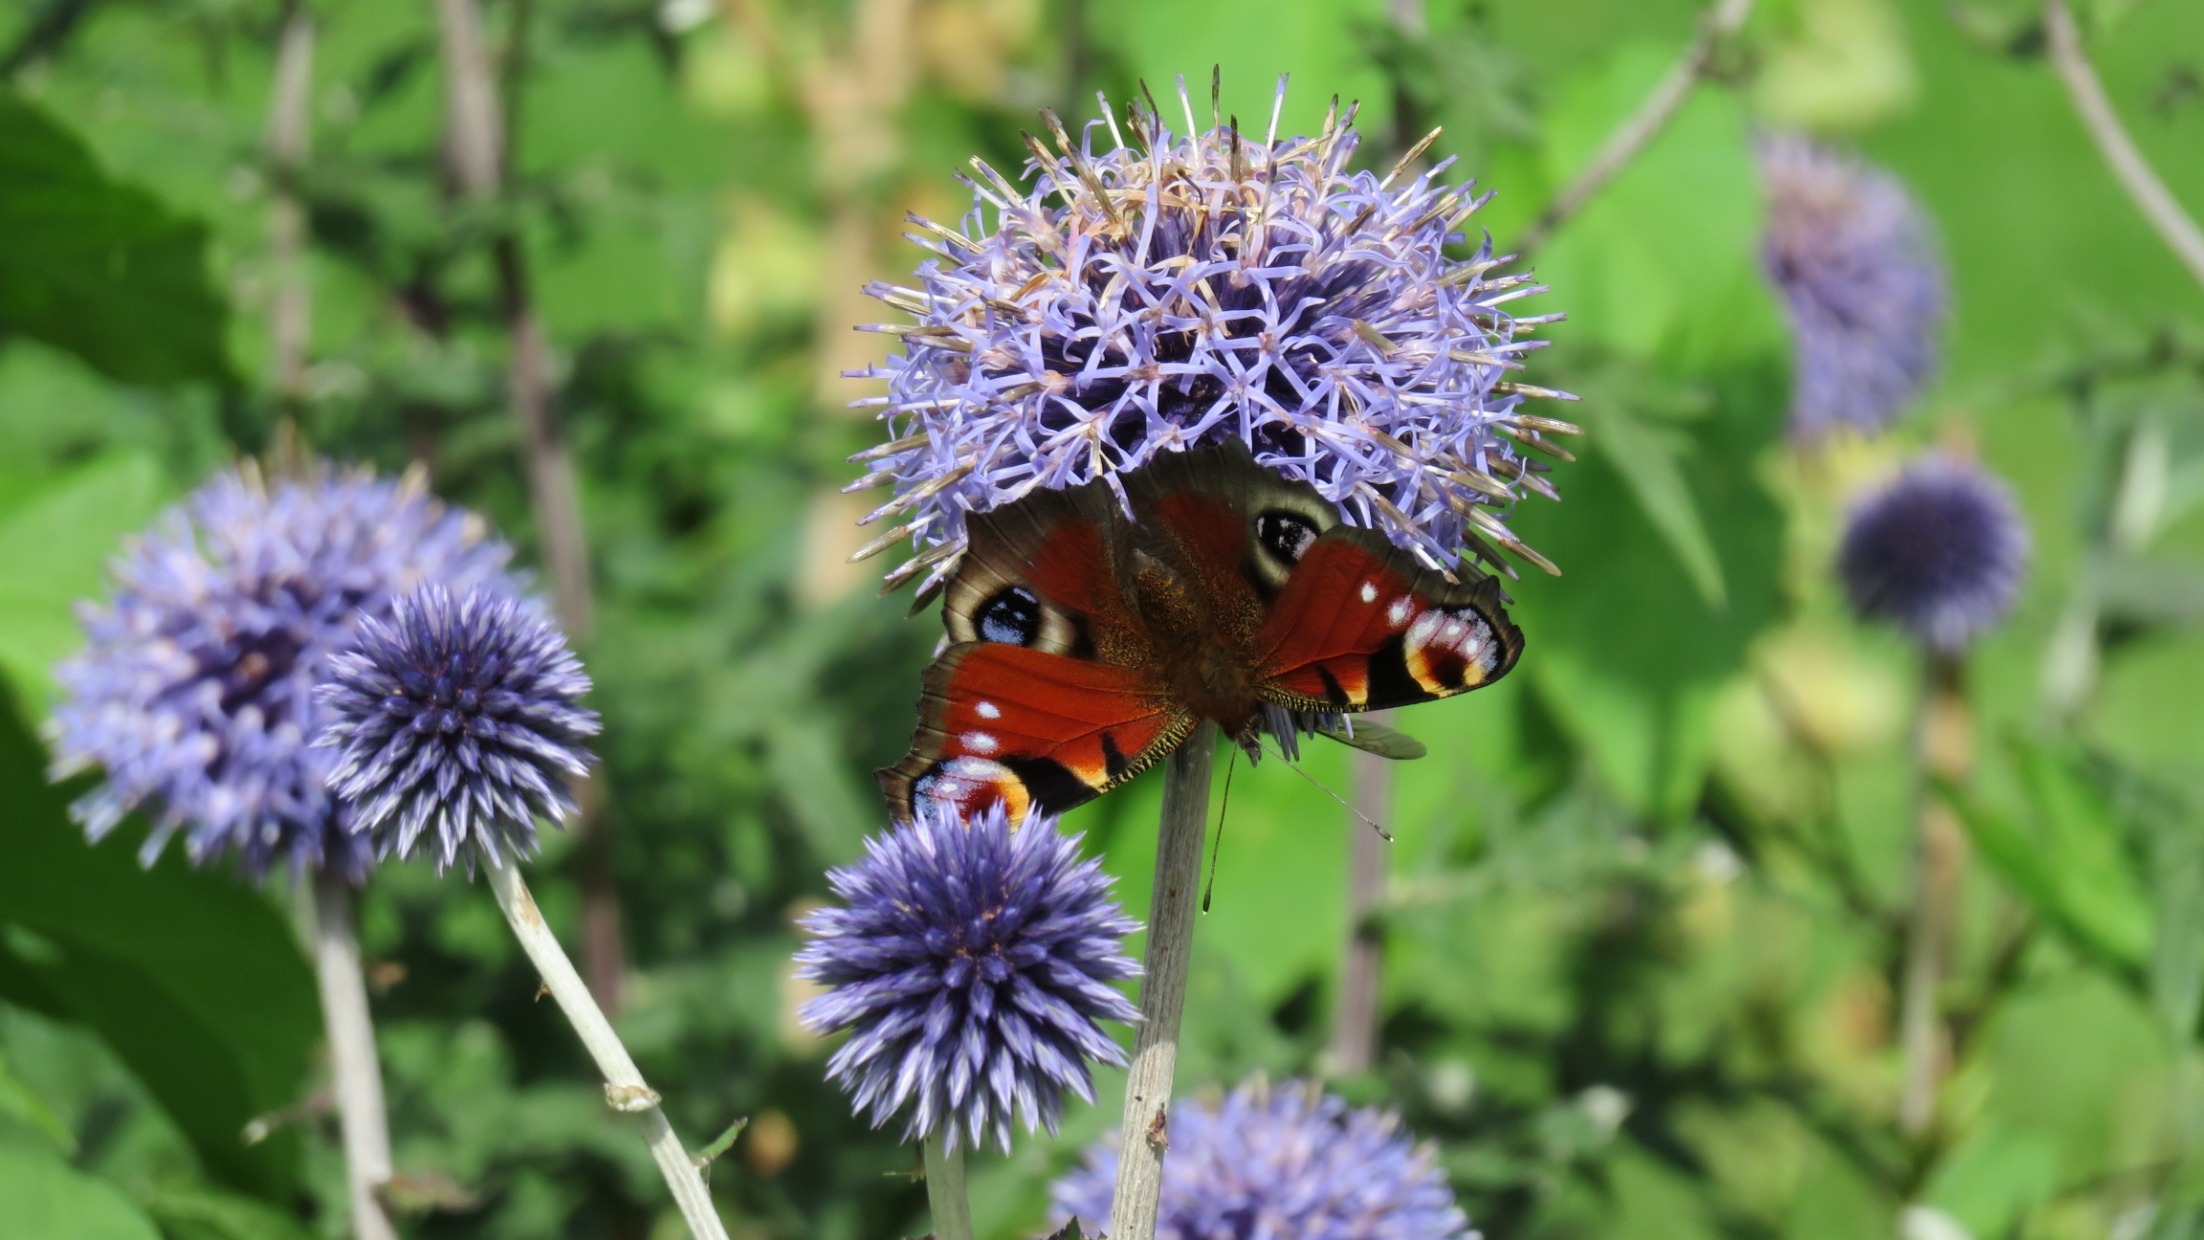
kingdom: Animalia
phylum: Arthropoda
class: Insecta
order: Lepidoptera
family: Nymphalidae
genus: Aglais
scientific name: Aglais io
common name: Dagpåfugleøje
